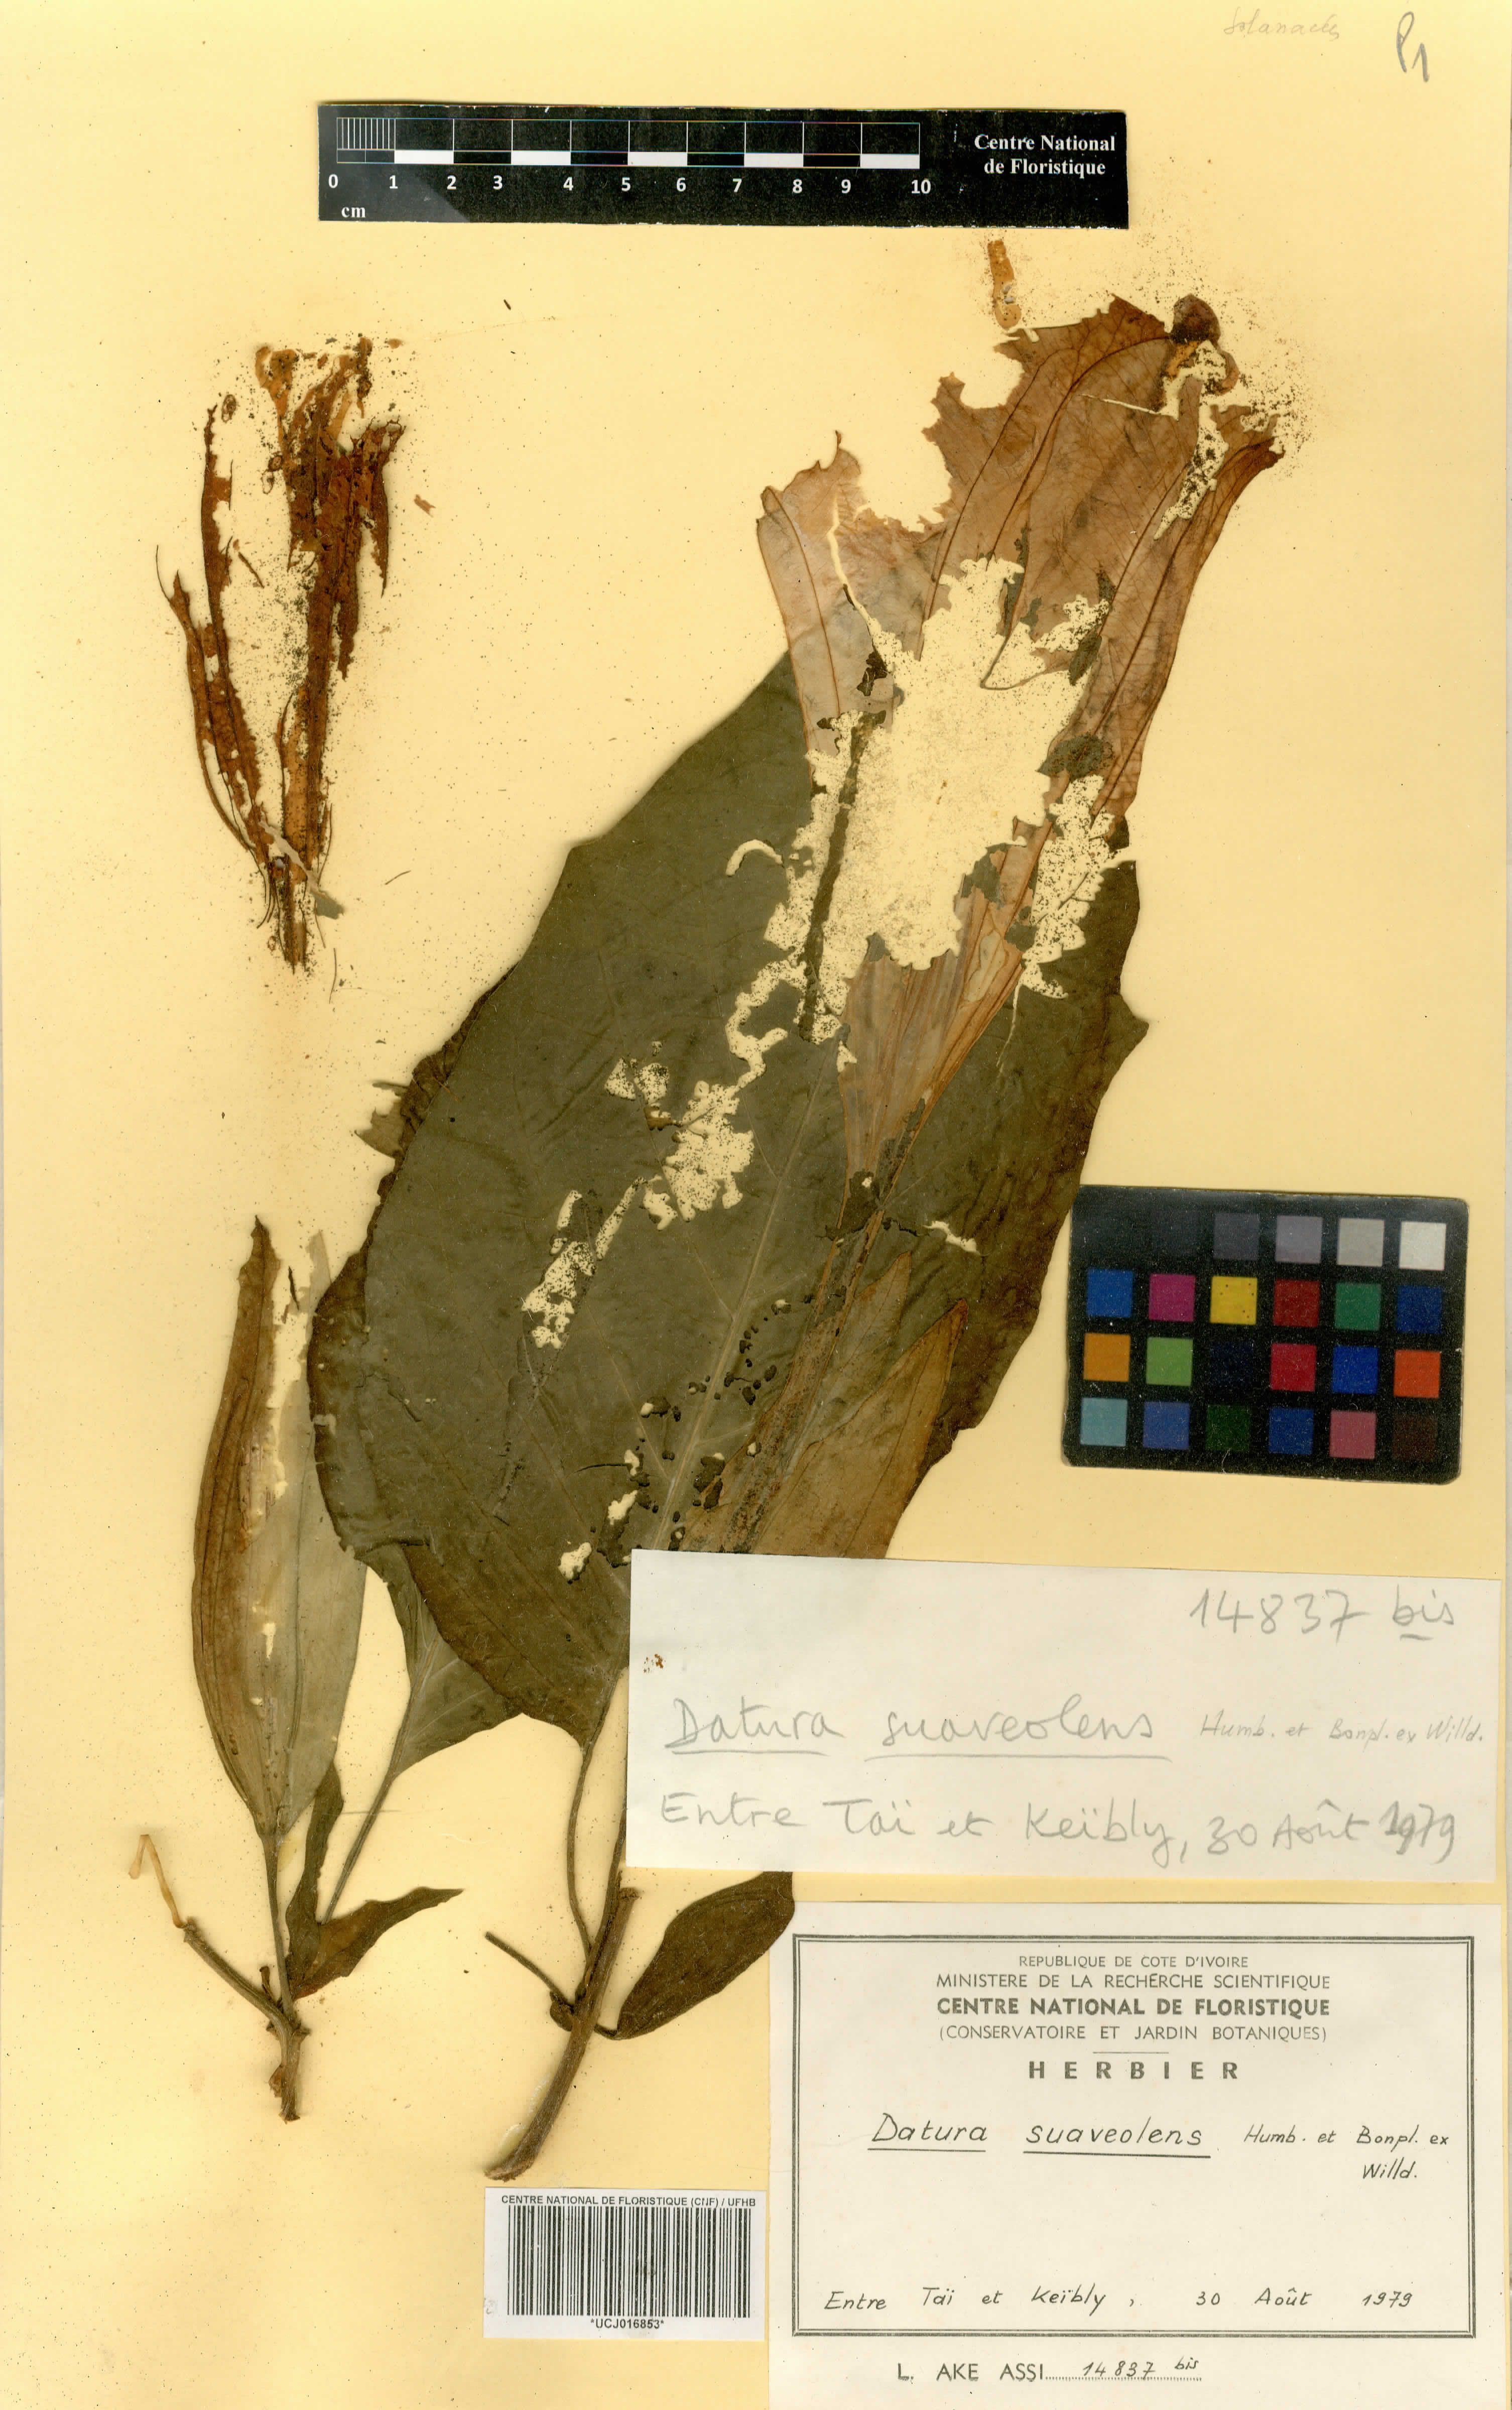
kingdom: Plantae
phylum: Tracheophyta
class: Magnoliopsida
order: Solanales
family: Solanaceae
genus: Brugmansia
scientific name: Brugmansia suaveolens
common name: Angel's tears
